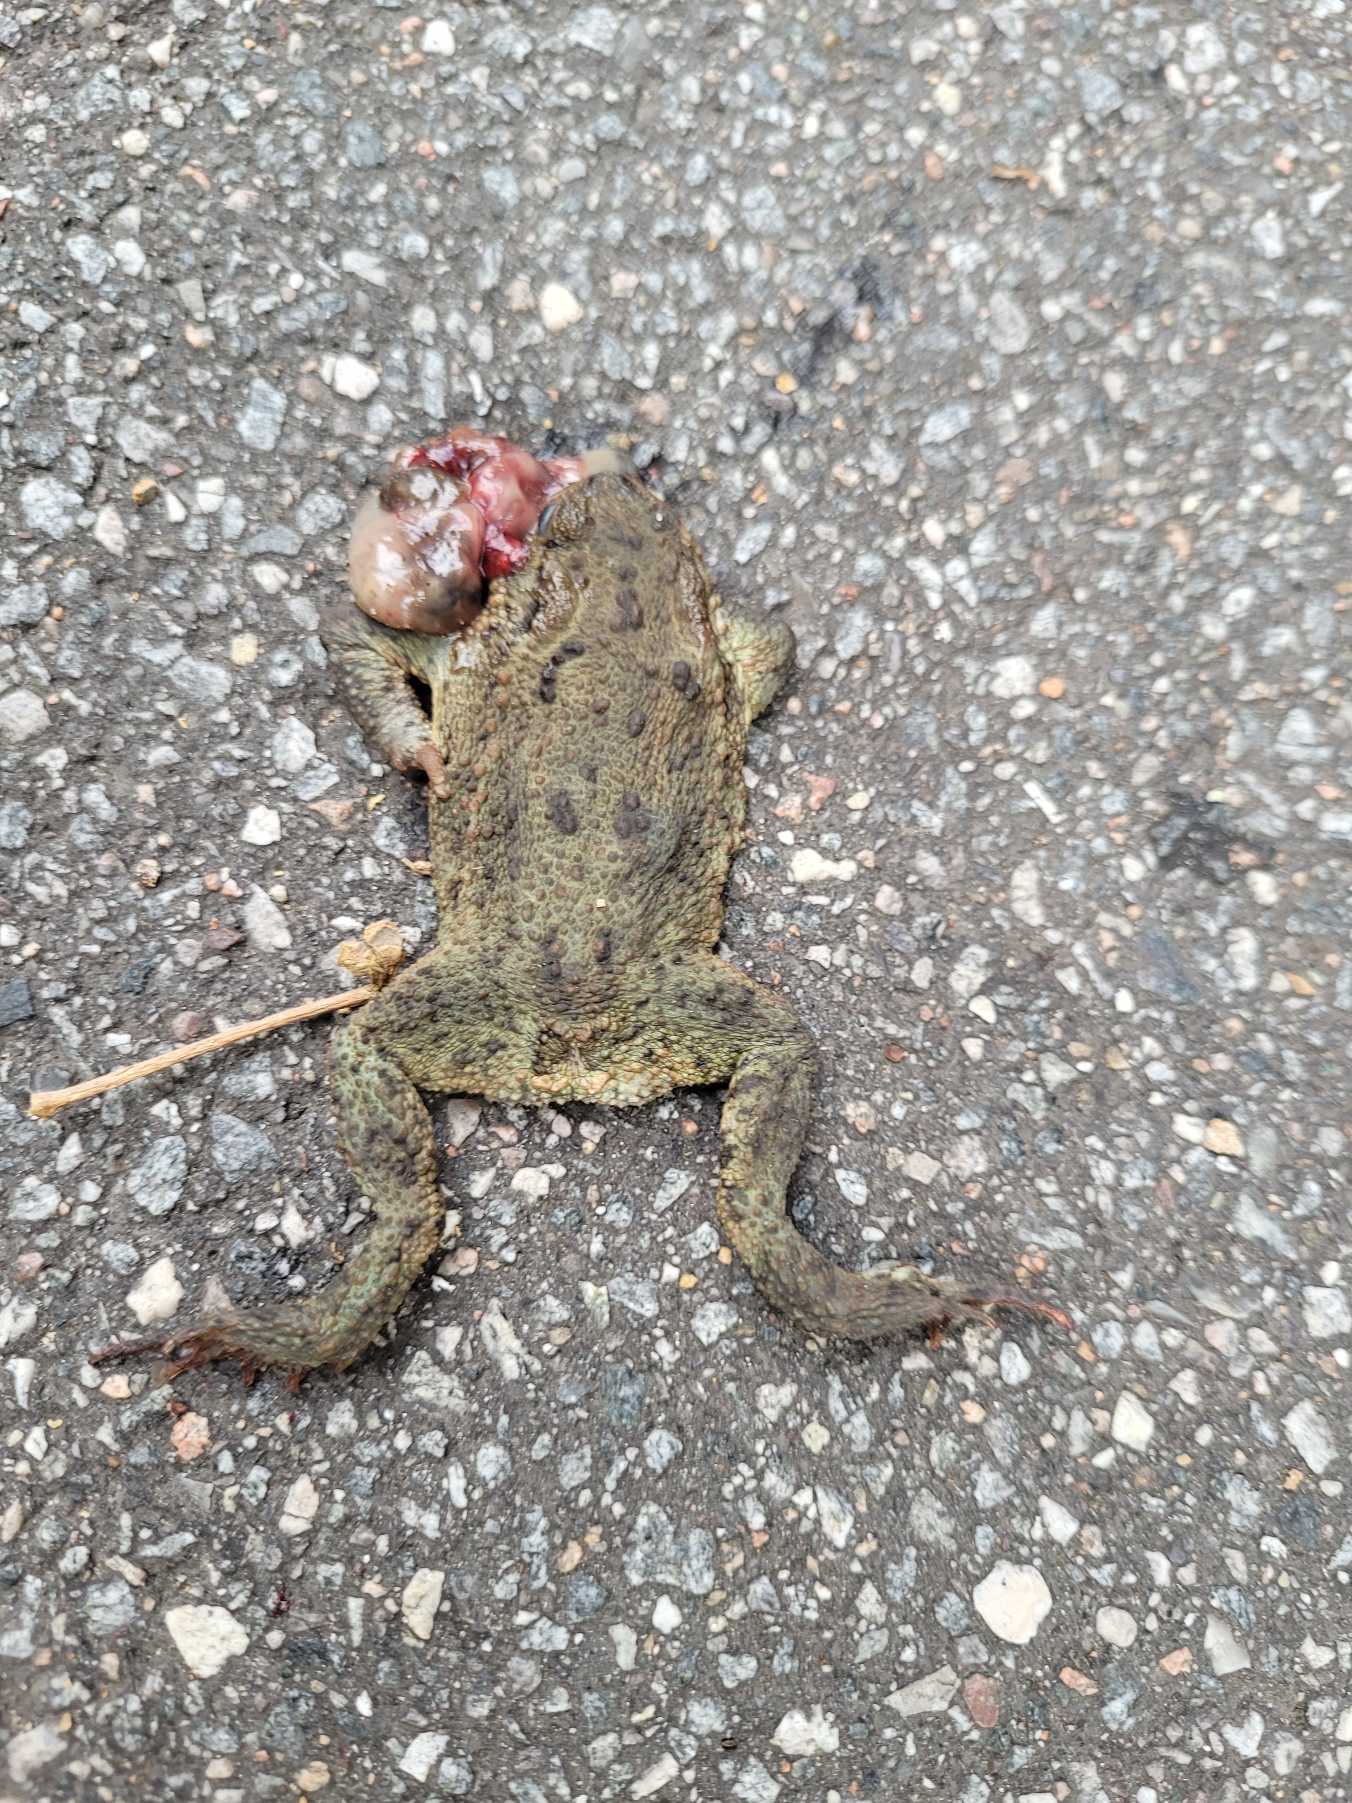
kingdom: Animalia
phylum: Chordata
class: Amphibia
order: Anura
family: Bufonidae
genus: Bufo
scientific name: Bufo bufo
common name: Skrubtudse
